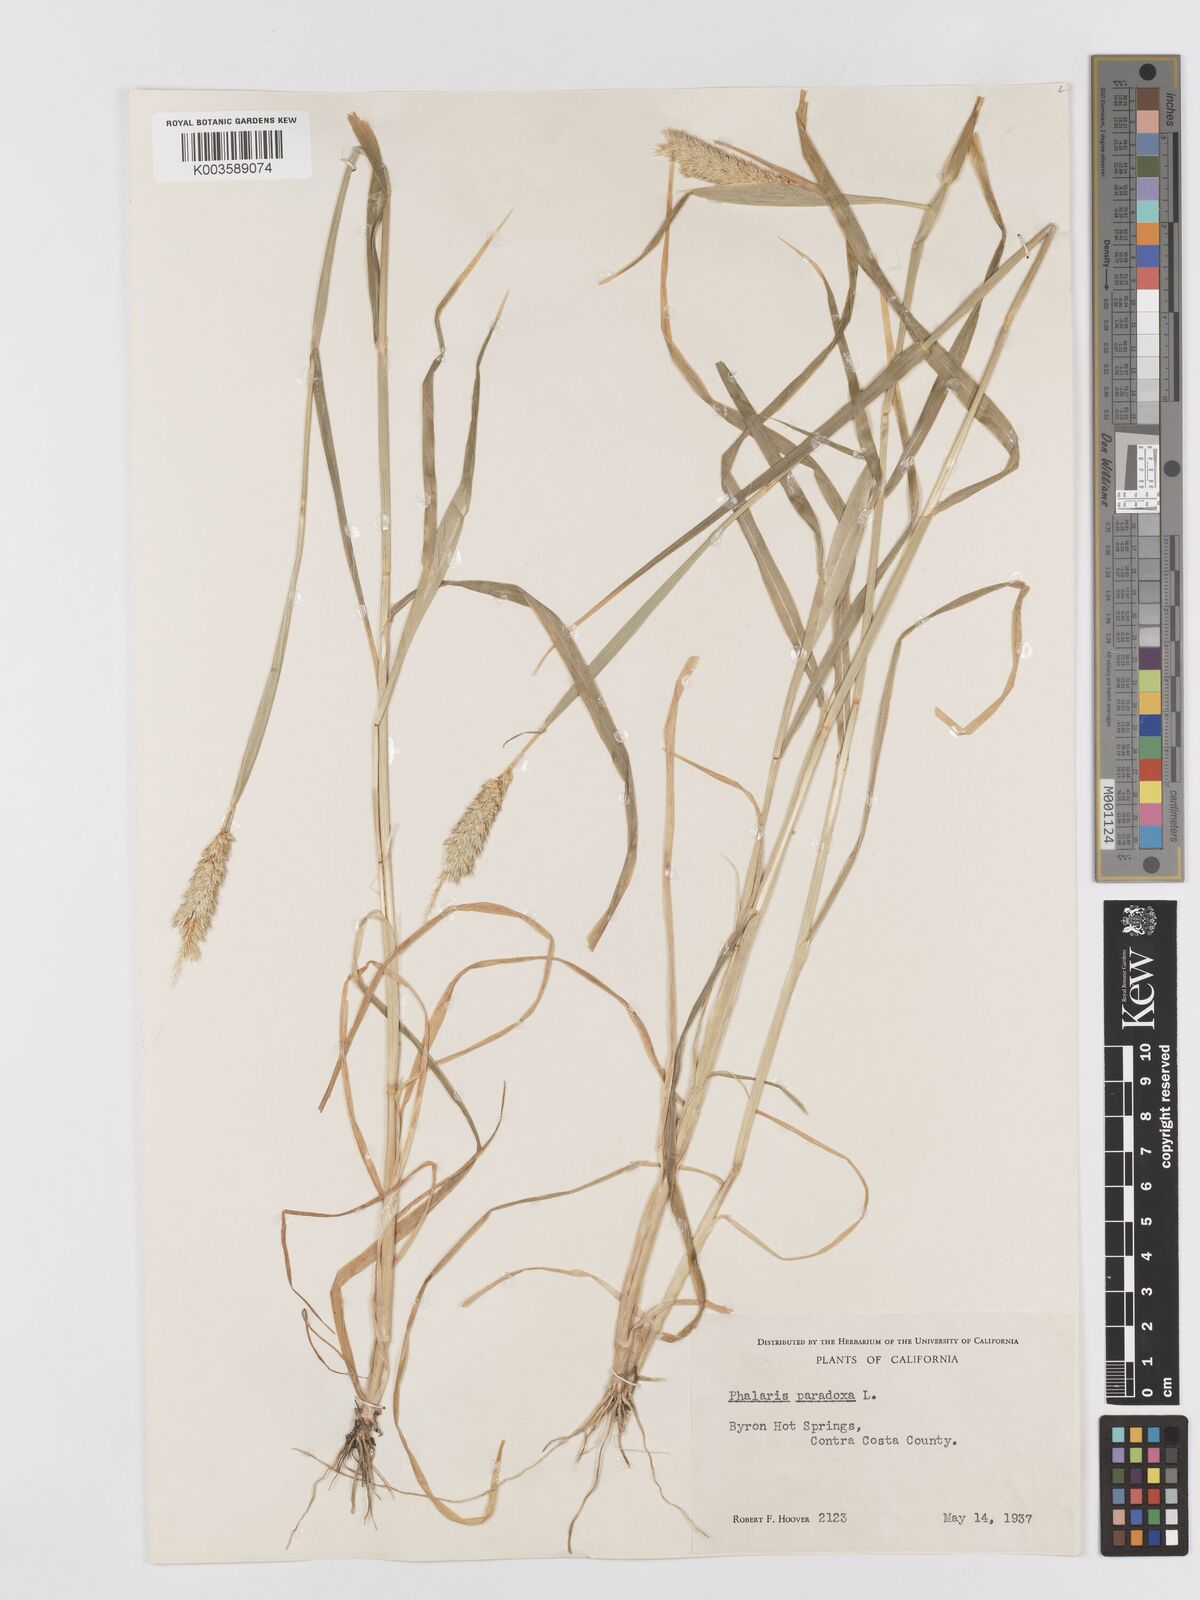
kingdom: Plantae
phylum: Tracheophyta
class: Liliopsida
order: Poales
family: Poaceae
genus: Phalaris
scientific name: Phalaris paradoxa
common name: Awned canary-grass
